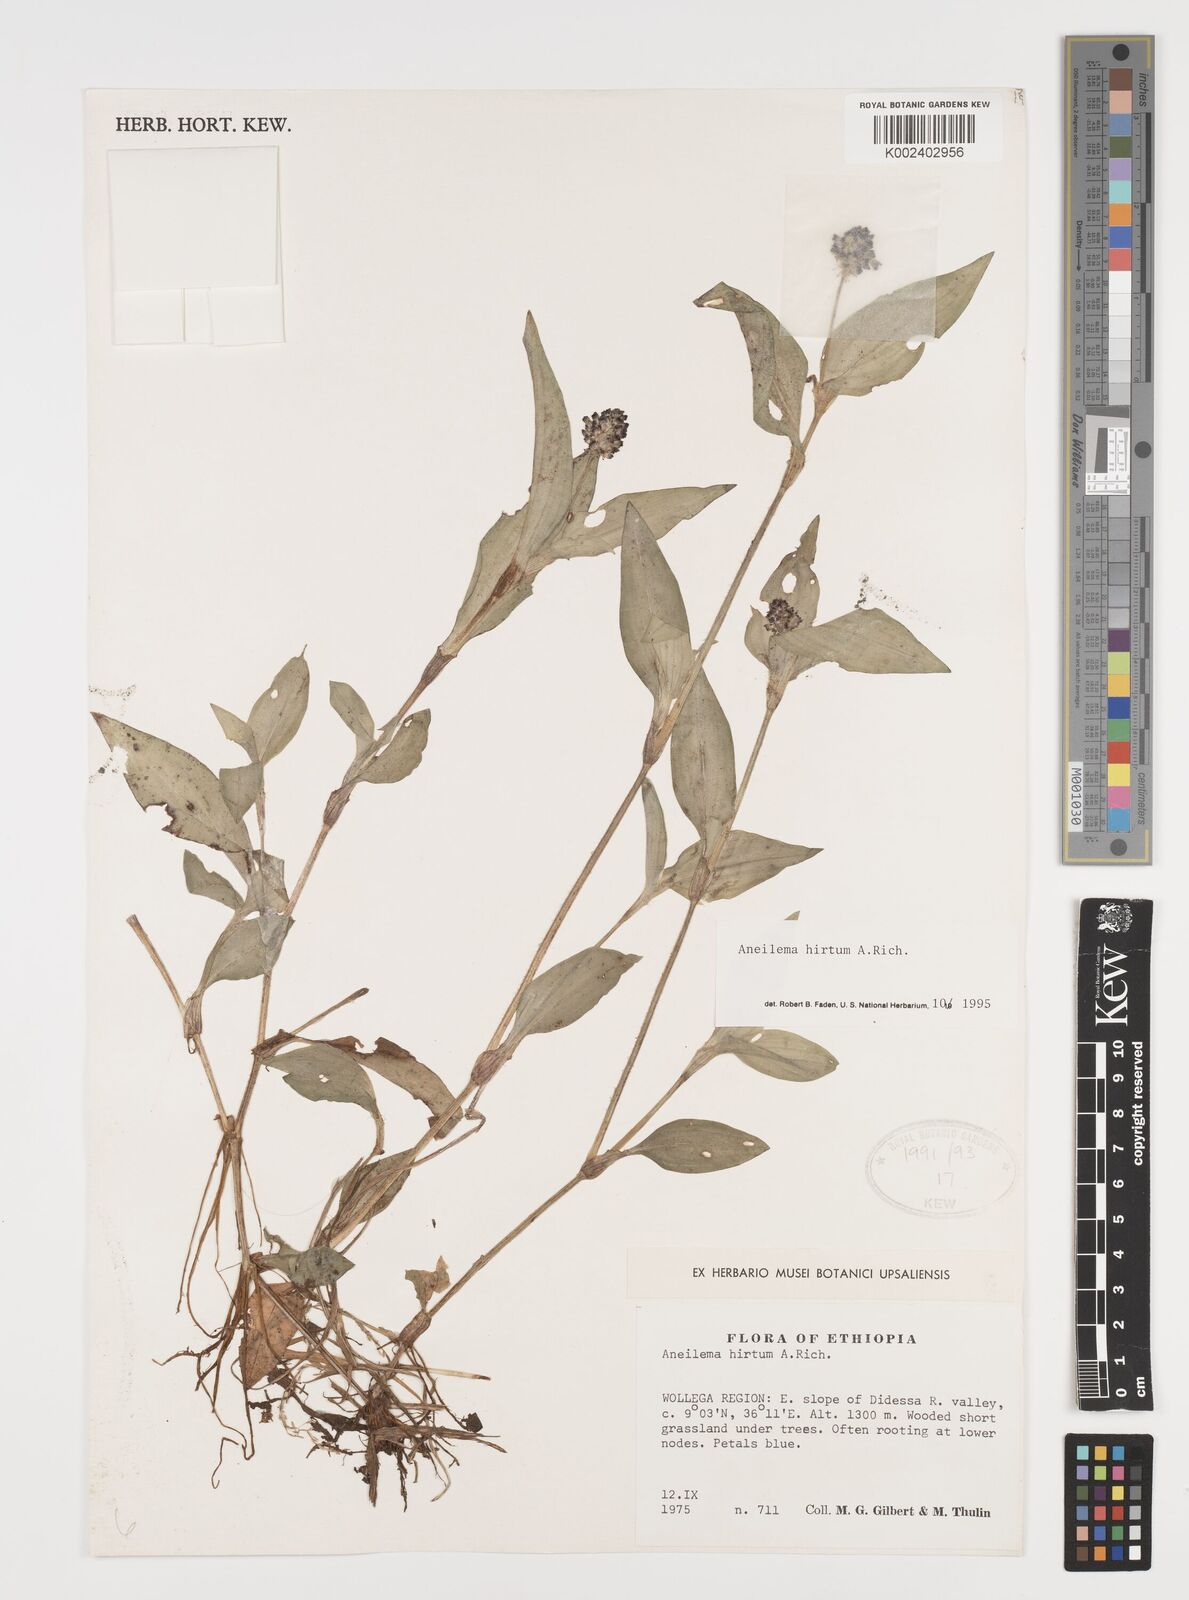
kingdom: Plantae
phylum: Tracheophyta
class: Liliopsida
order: Commelinales
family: Commelinaceae
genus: Aneilema
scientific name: Aneilema hirtum
